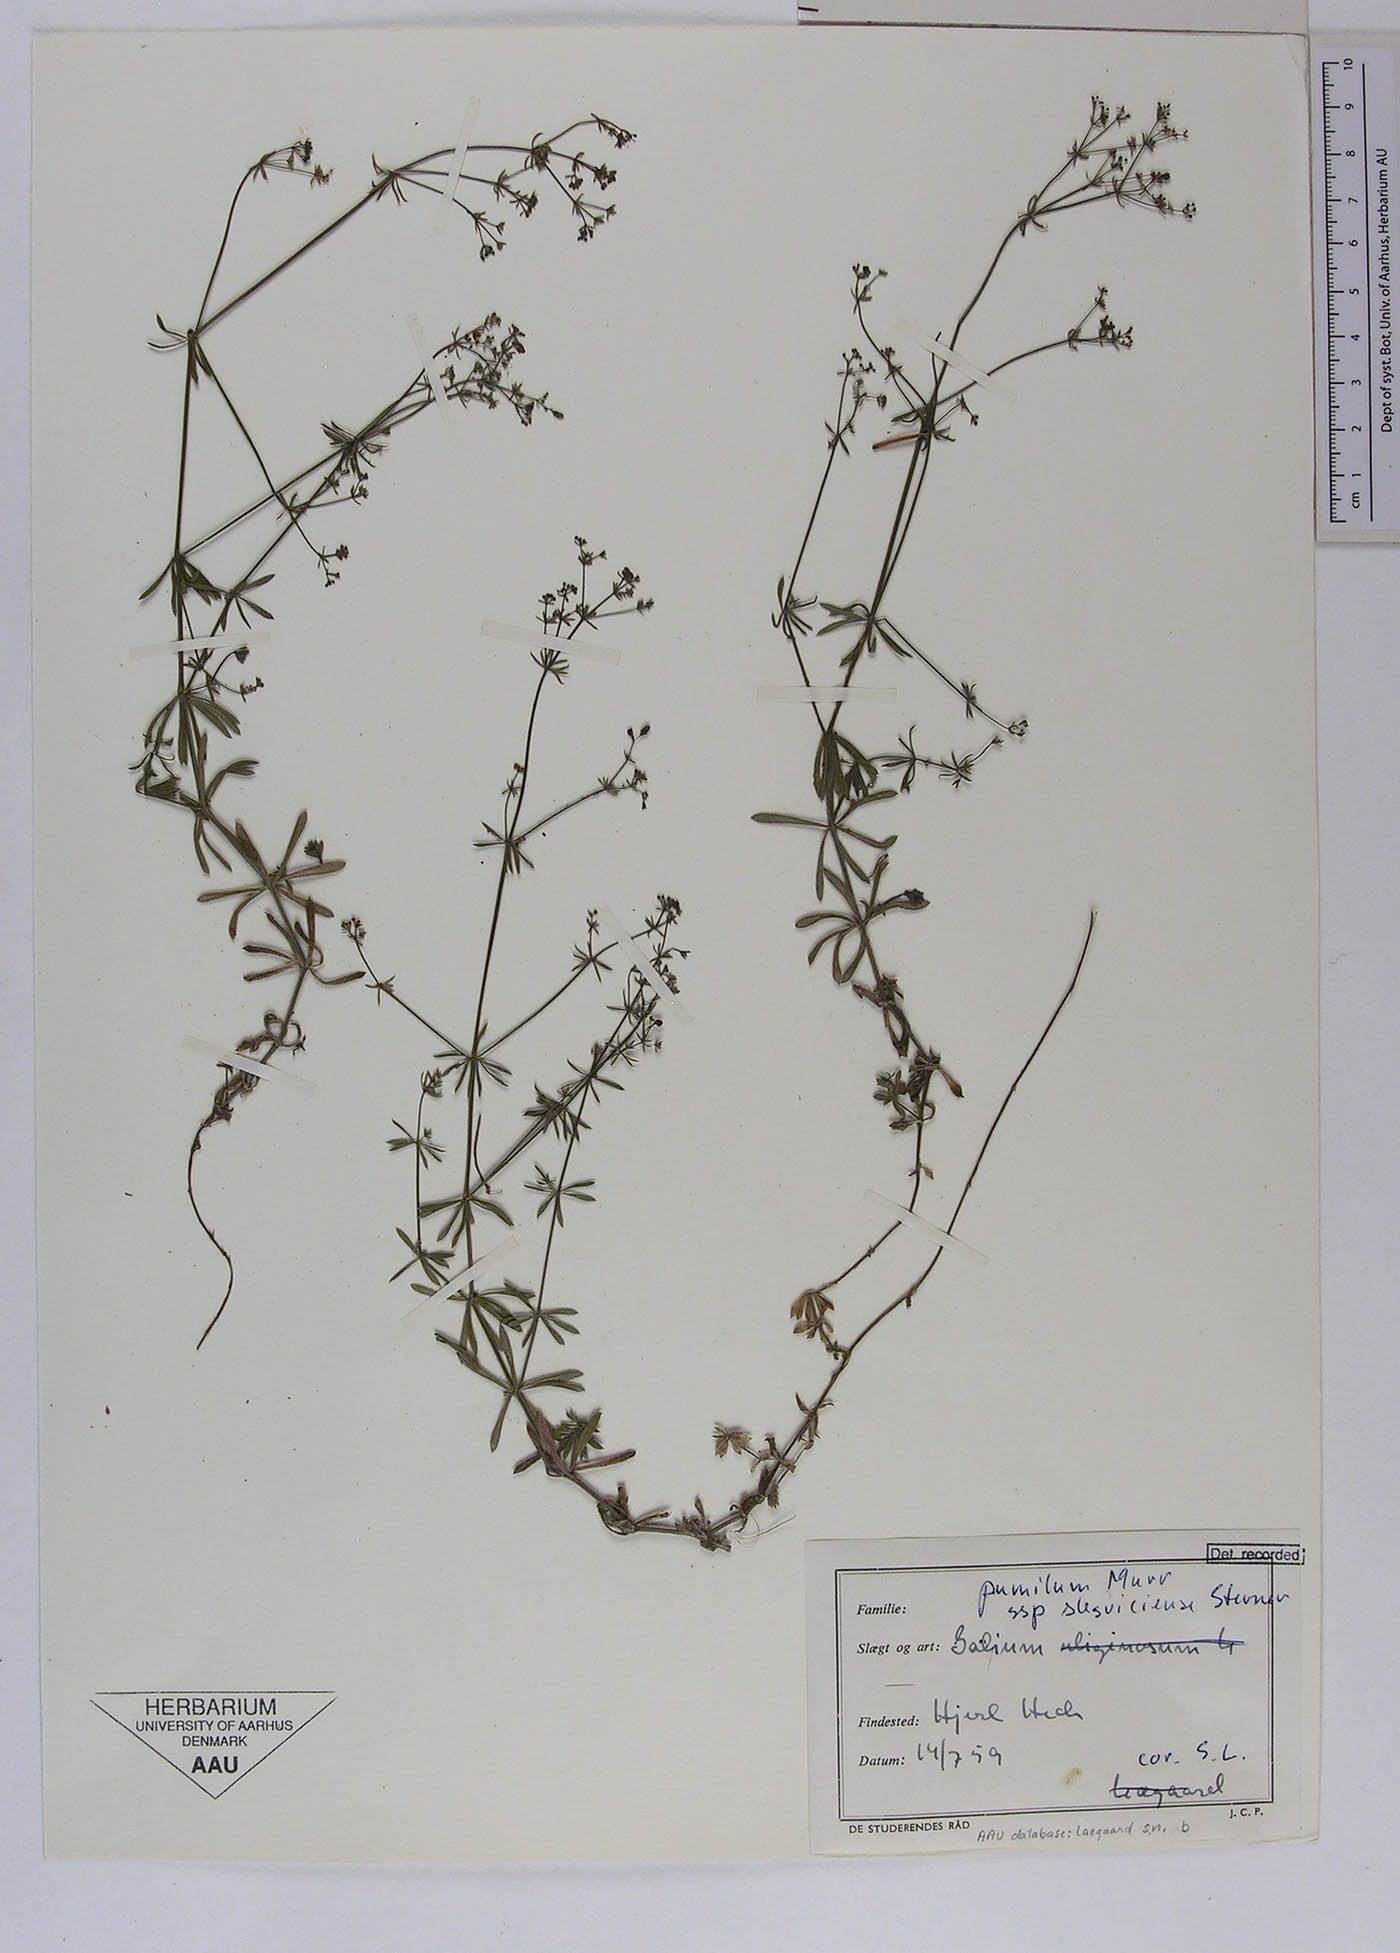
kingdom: Plantae
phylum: Tracheophyta
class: Magnoliopsida
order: Gentianales
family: Rubiaceae
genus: Galium
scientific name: Galium pusillum
